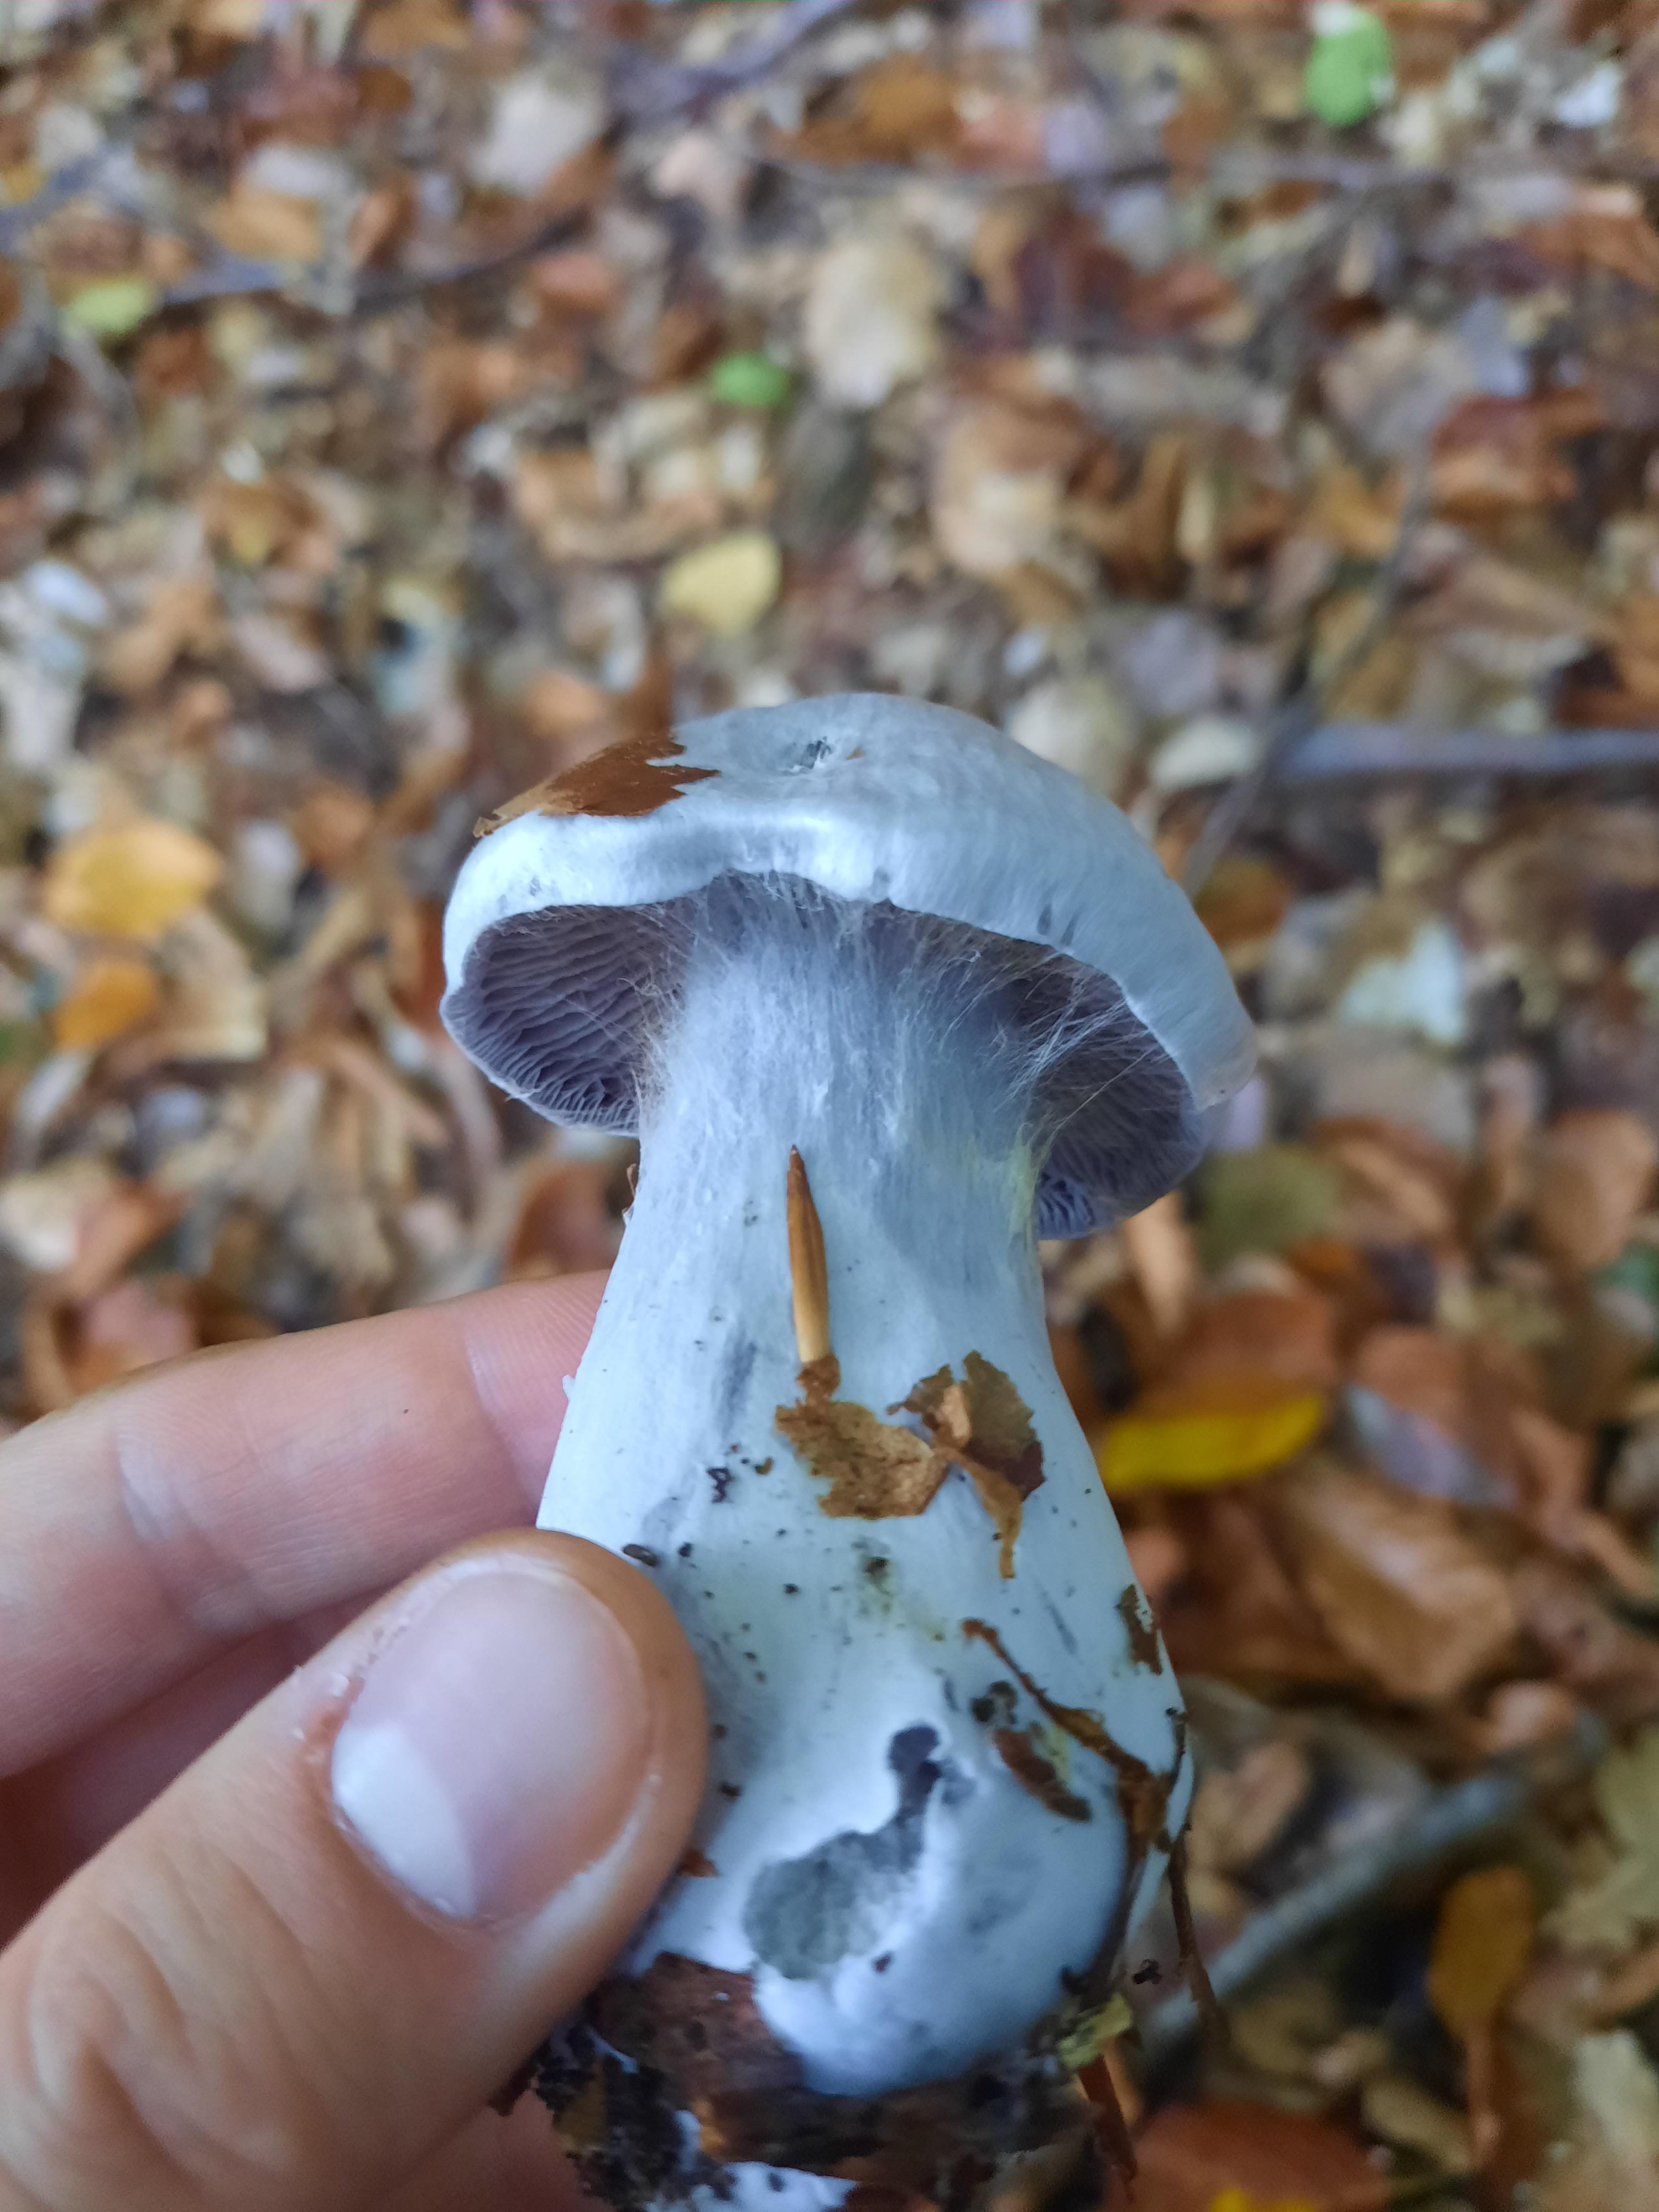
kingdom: Fungi
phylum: Basidiomycota
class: Agaricomycetes
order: Agaricales
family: Cortinariaceae
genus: Cortinarius
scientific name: Cortinarius alboviolaceus
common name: lysviolet slørhat
